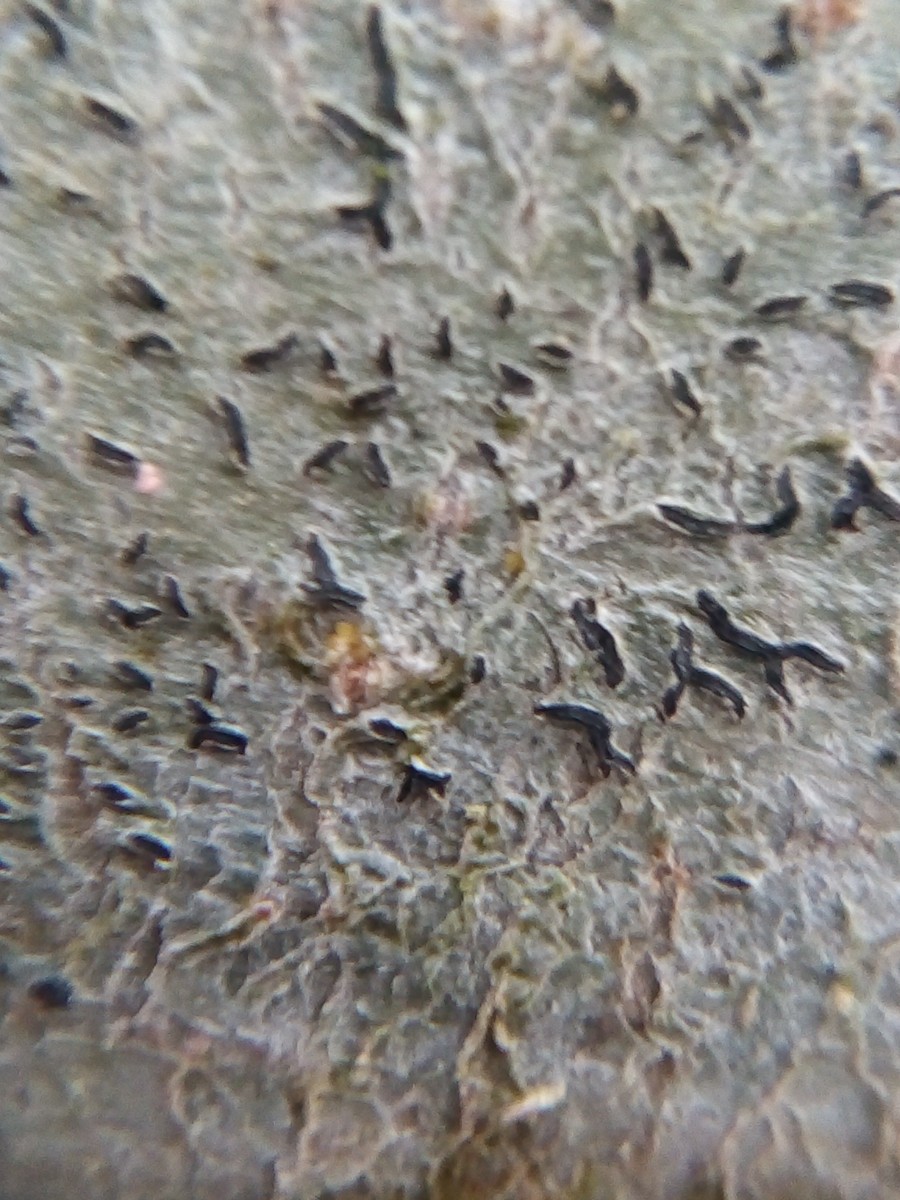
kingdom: Fungi
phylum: Ascomycota
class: Lecanoromycetes
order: Ostropales
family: Graphidaceae
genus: Graphis
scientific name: Graphis scripta
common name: almindelig skriftlav
